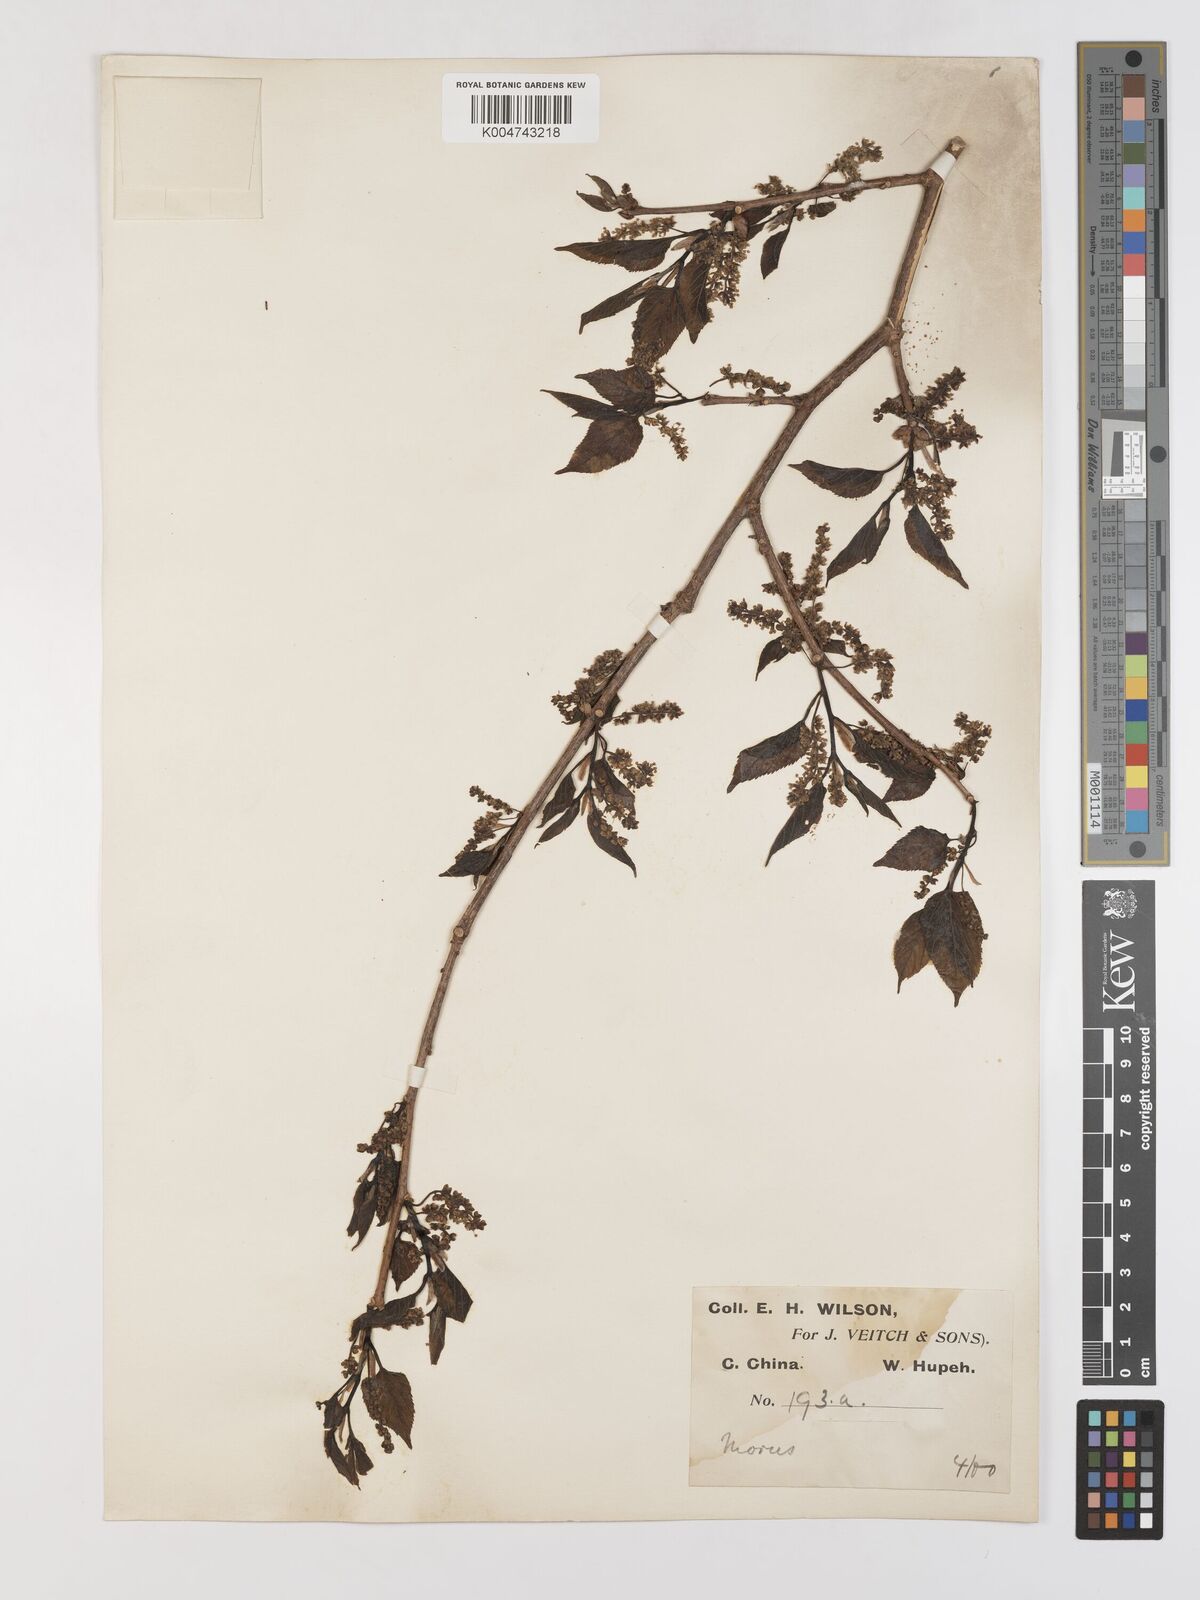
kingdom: Plantae
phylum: Tracheophyta
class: Magnoliopsida
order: Rosales
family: Moraceae
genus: Morus
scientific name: Morus indica
